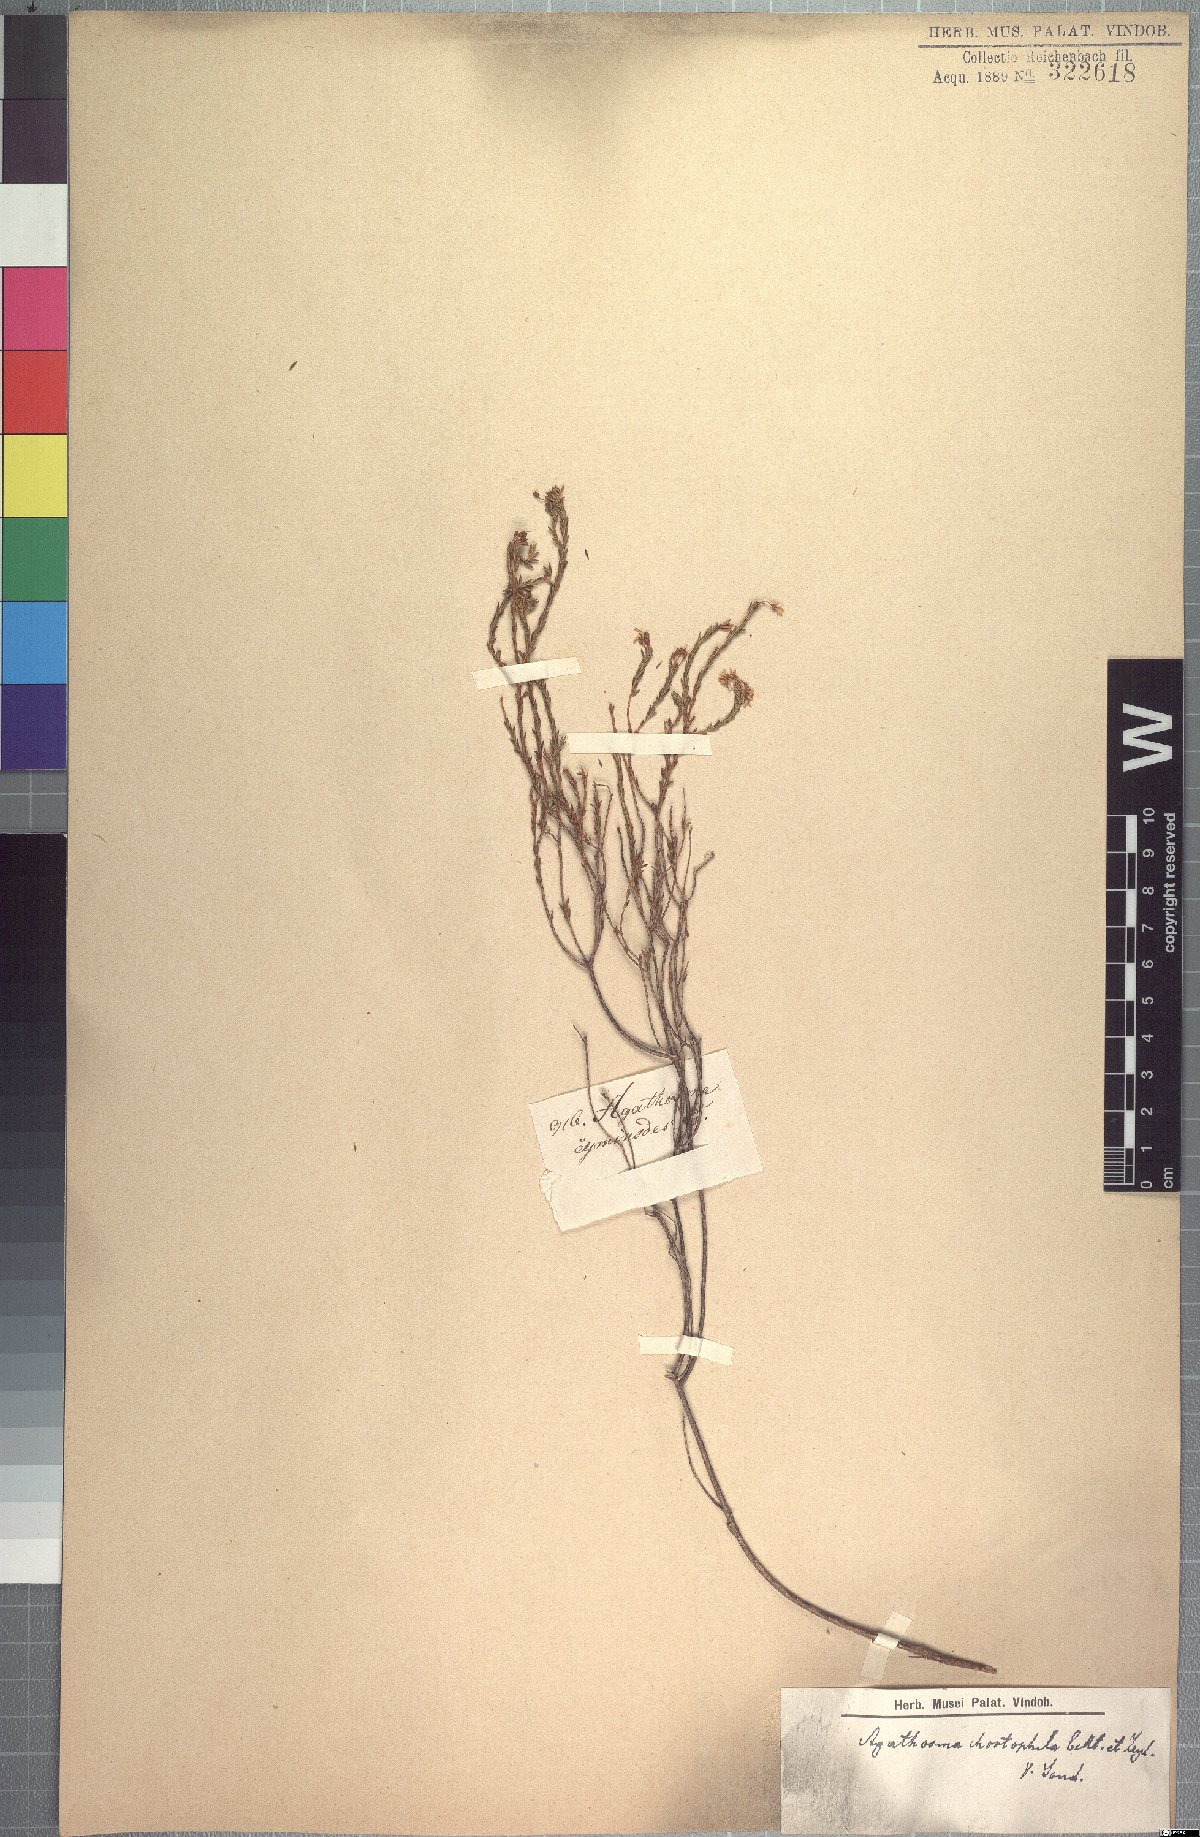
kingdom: Plantae
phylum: Tracheophyta
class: Magnoliopsida
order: Sapindales
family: Rutaceae
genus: Agathosma
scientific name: Agathosma capensis
